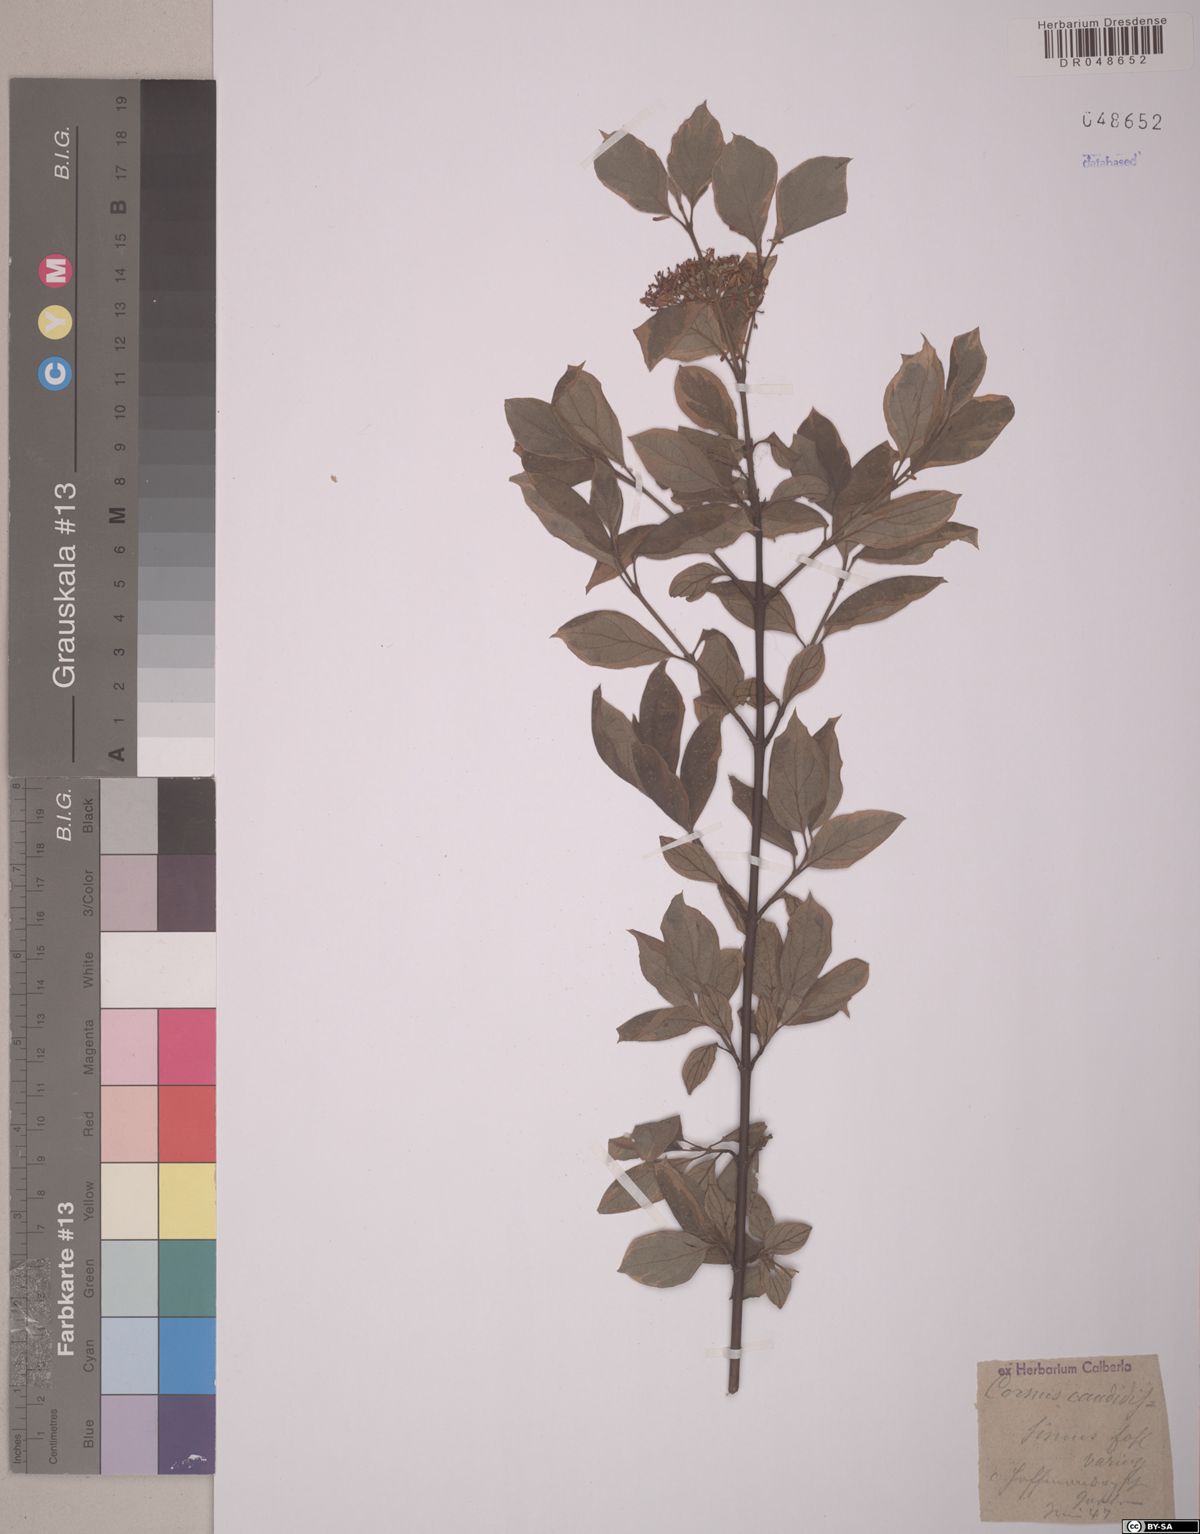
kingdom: Plantae
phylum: Tracheophyta
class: Magnoliopsida
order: Cornales
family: Cornaceae
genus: Cornus
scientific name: Cornus florida
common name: Flowering dogwood
